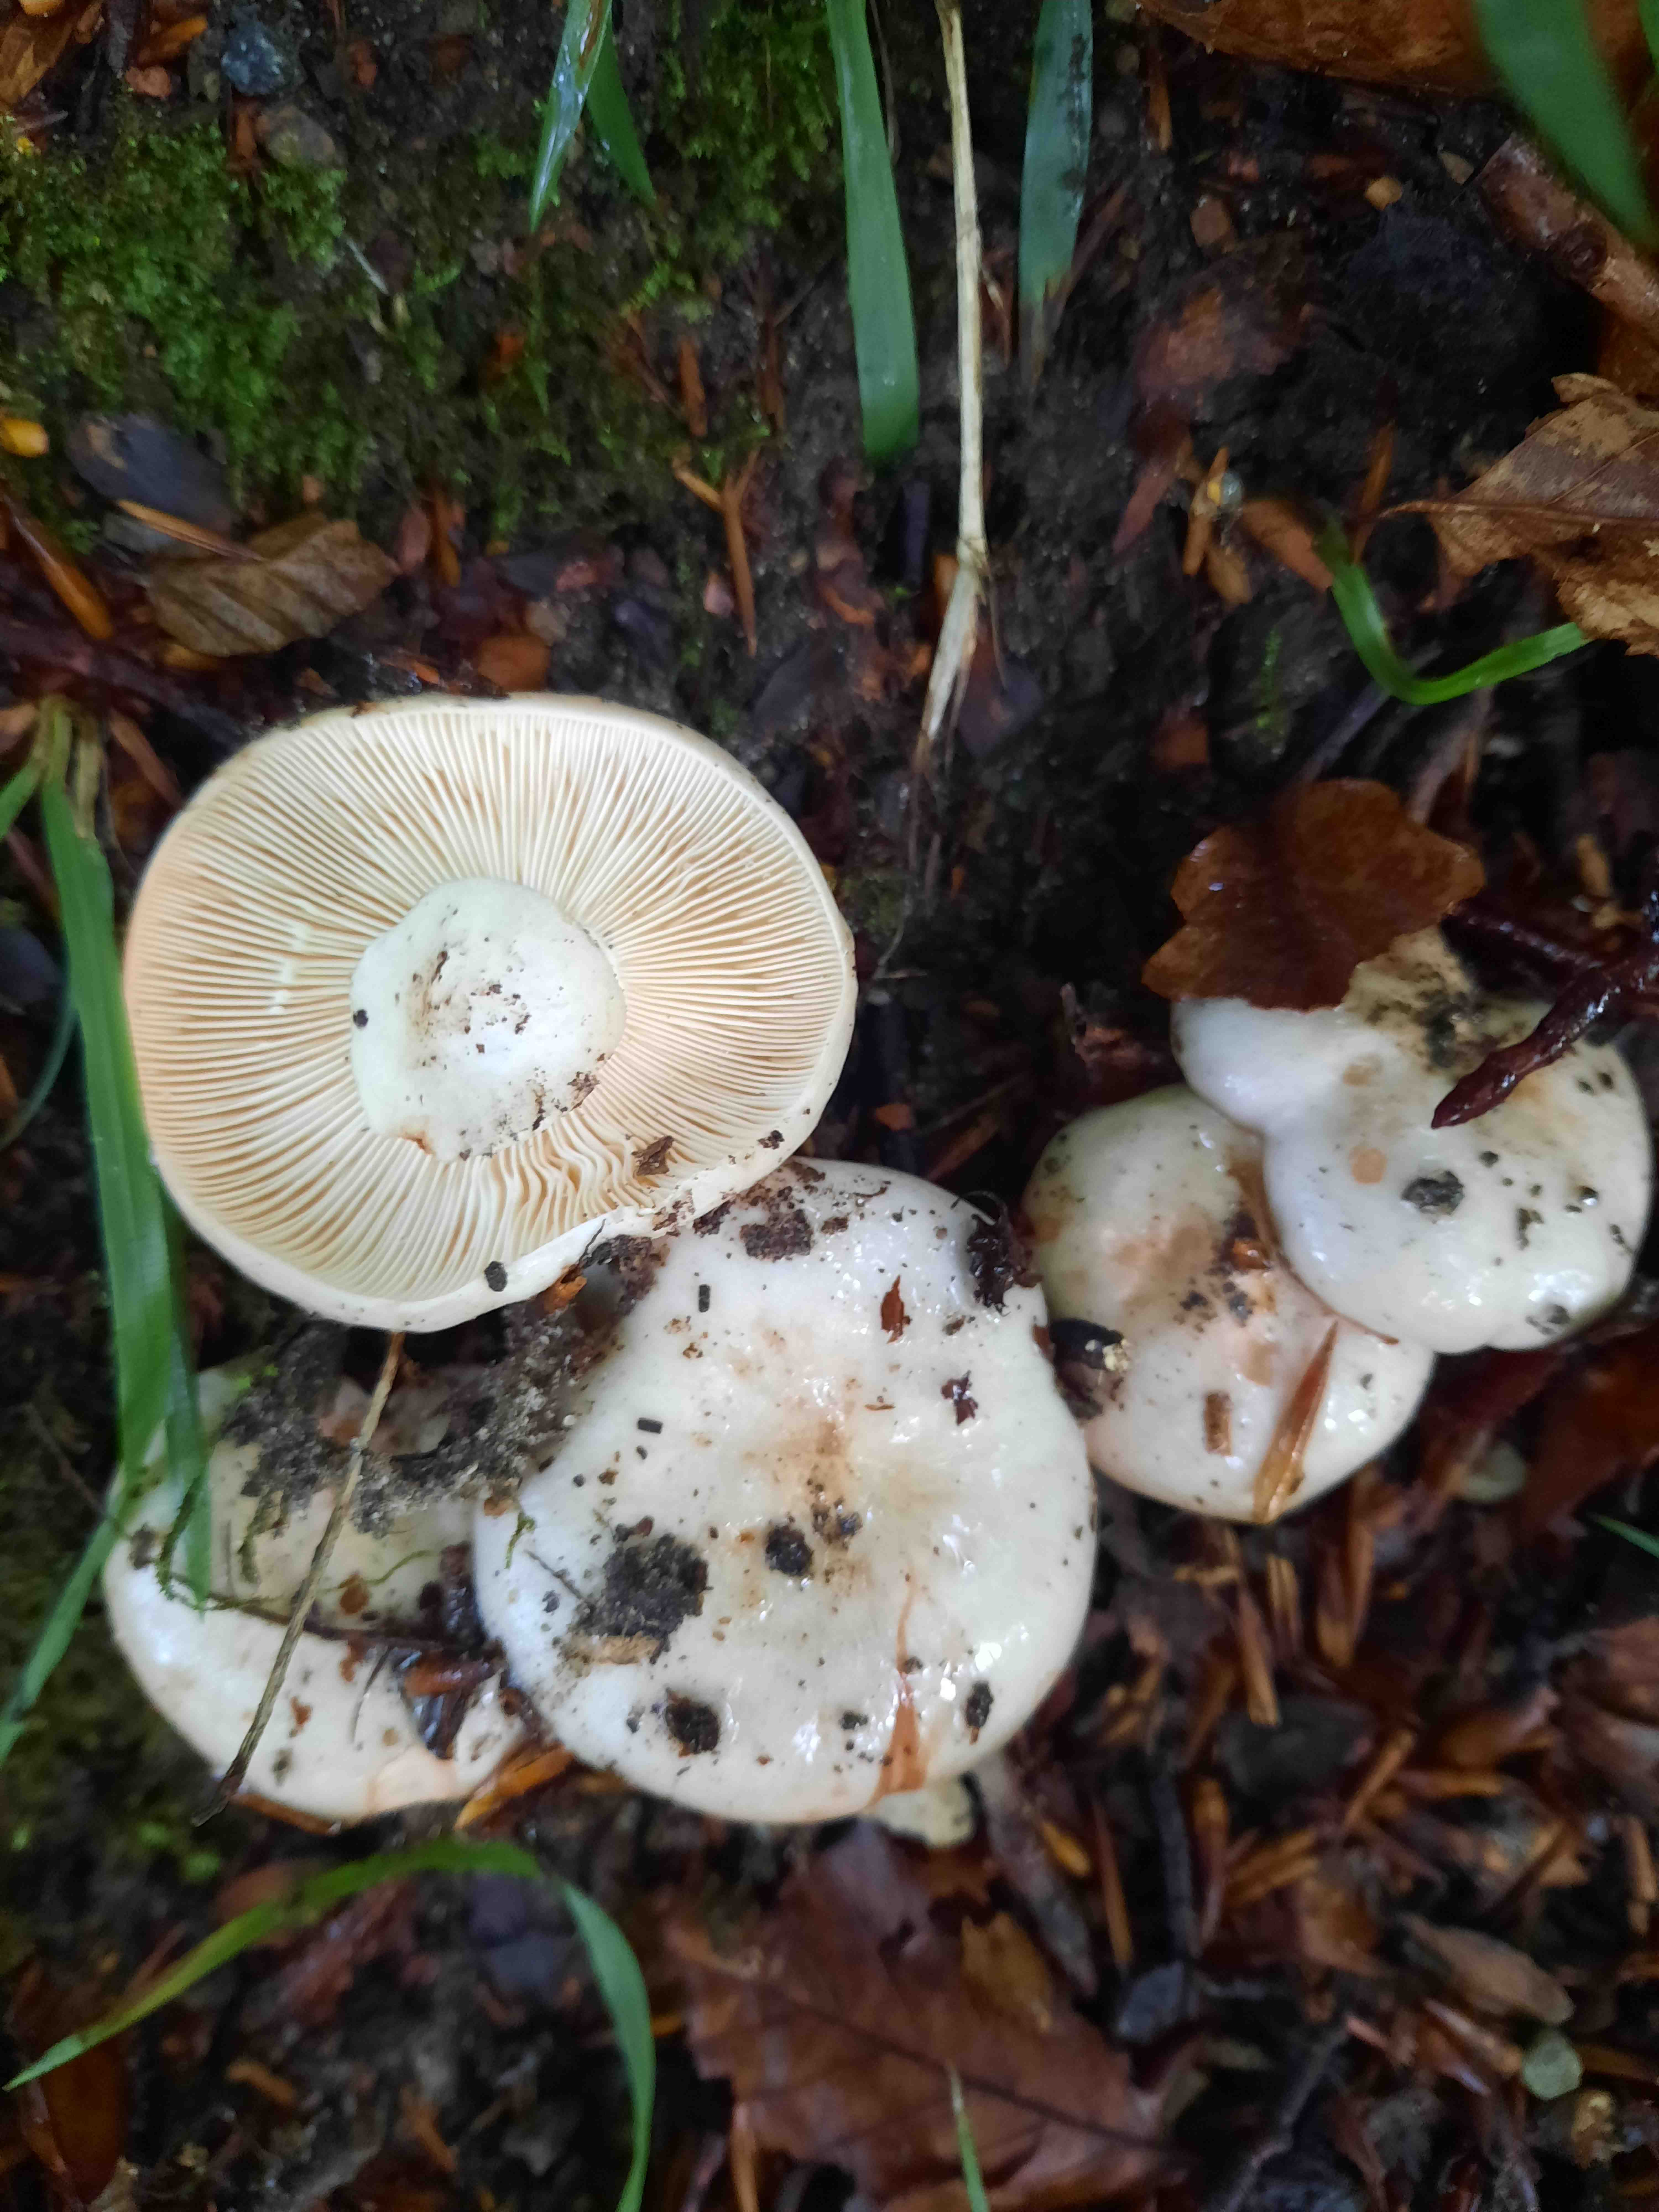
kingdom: Fungi
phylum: Basidiomycota
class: Agaricomycetes
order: Russulales
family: Russulaceae
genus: Lactarius
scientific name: Lactarius pallidus
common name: bleg mælkehat
